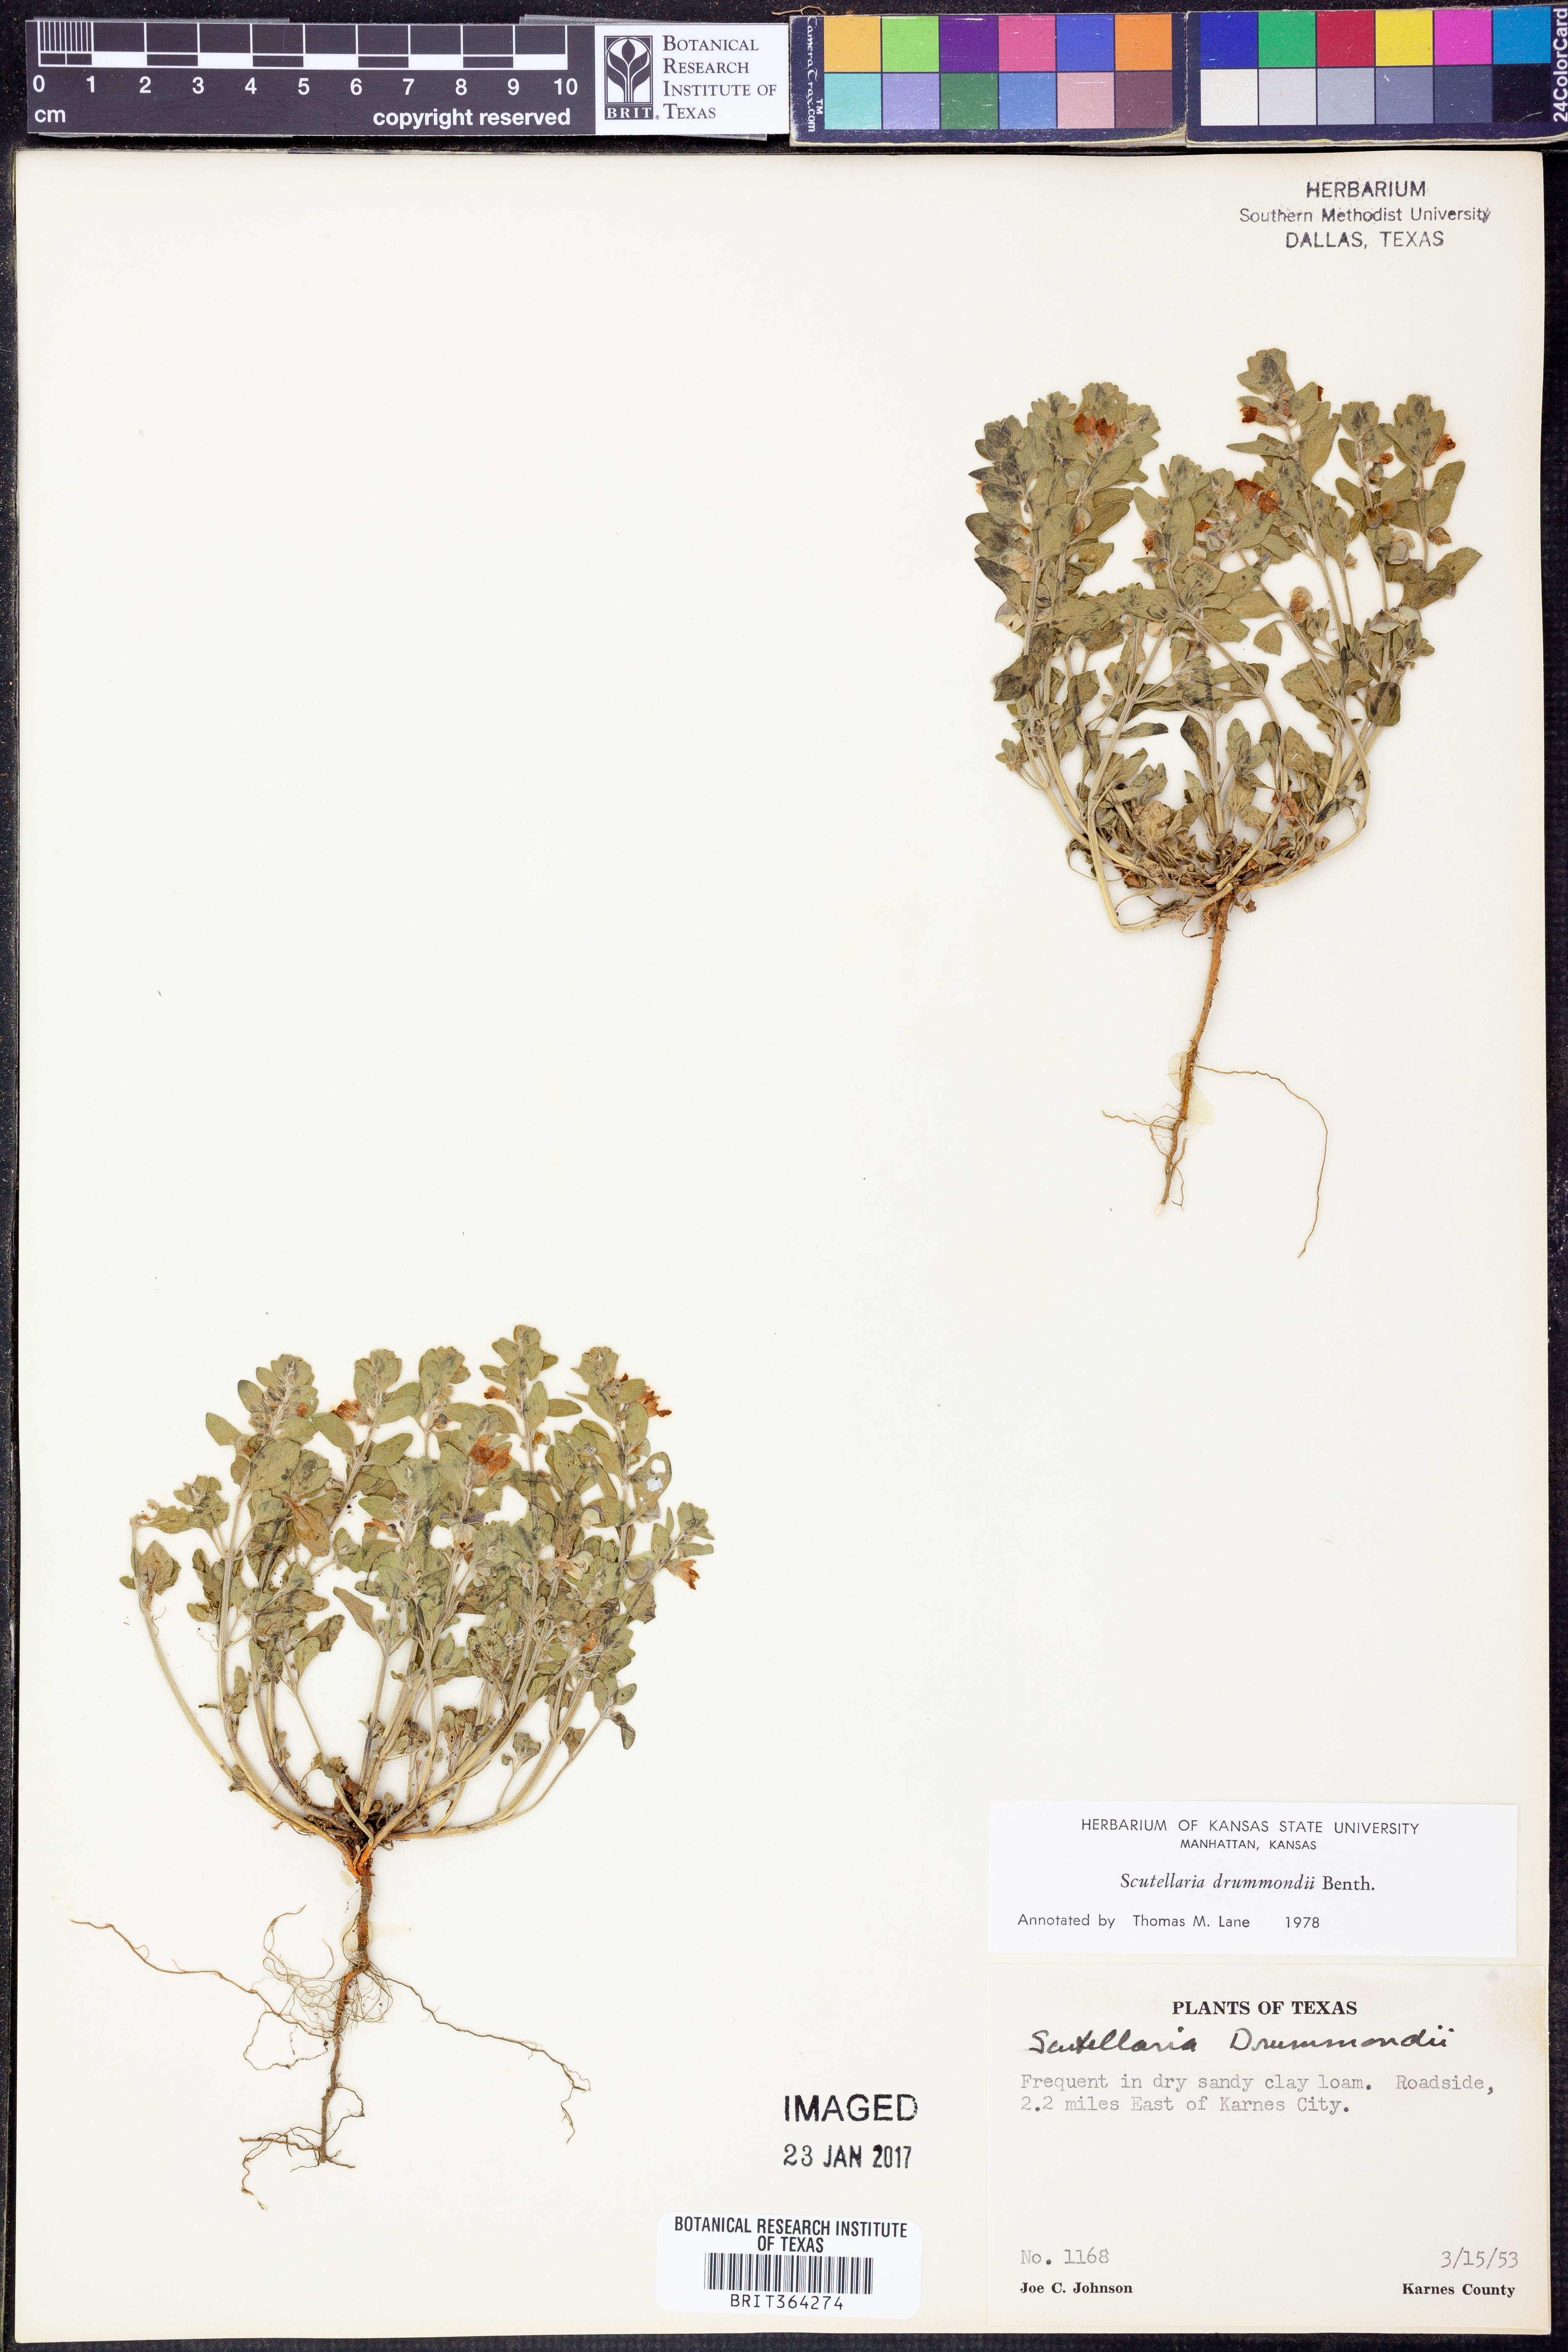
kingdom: Plantae
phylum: Tracheophyta
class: Magnoliopsida
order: Lamiales
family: Lamiaceae
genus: Scutellaria
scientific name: Scutellaria drummondii
